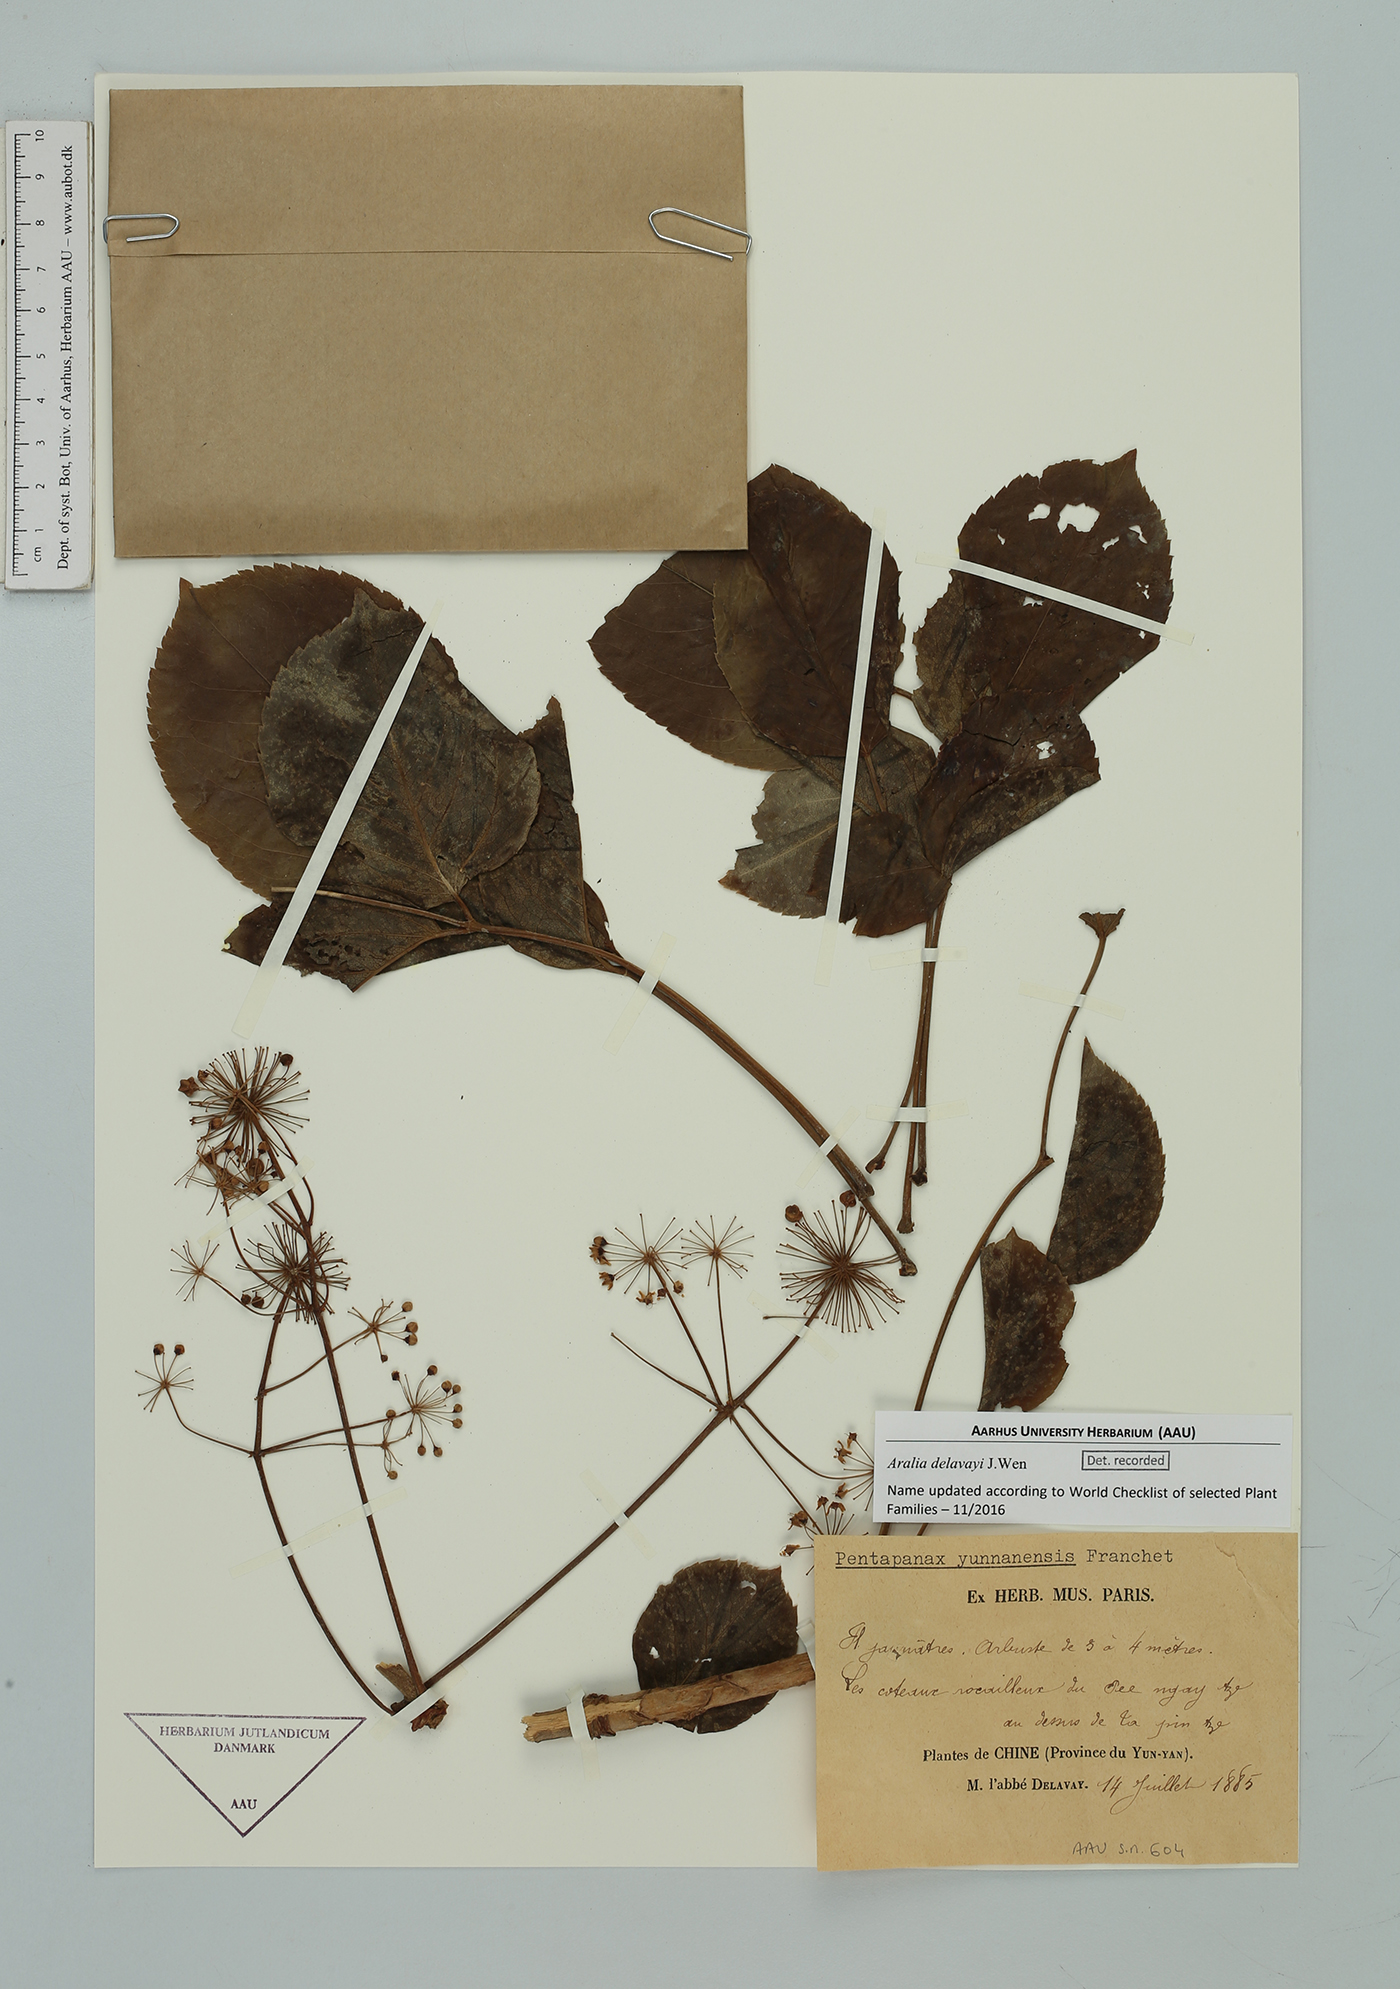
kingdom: Plantae
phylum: Tracheophyta
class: Magnoliopsida
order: Apiales
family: Araliaceae
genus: Aralia
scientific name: Aralia delavayi
